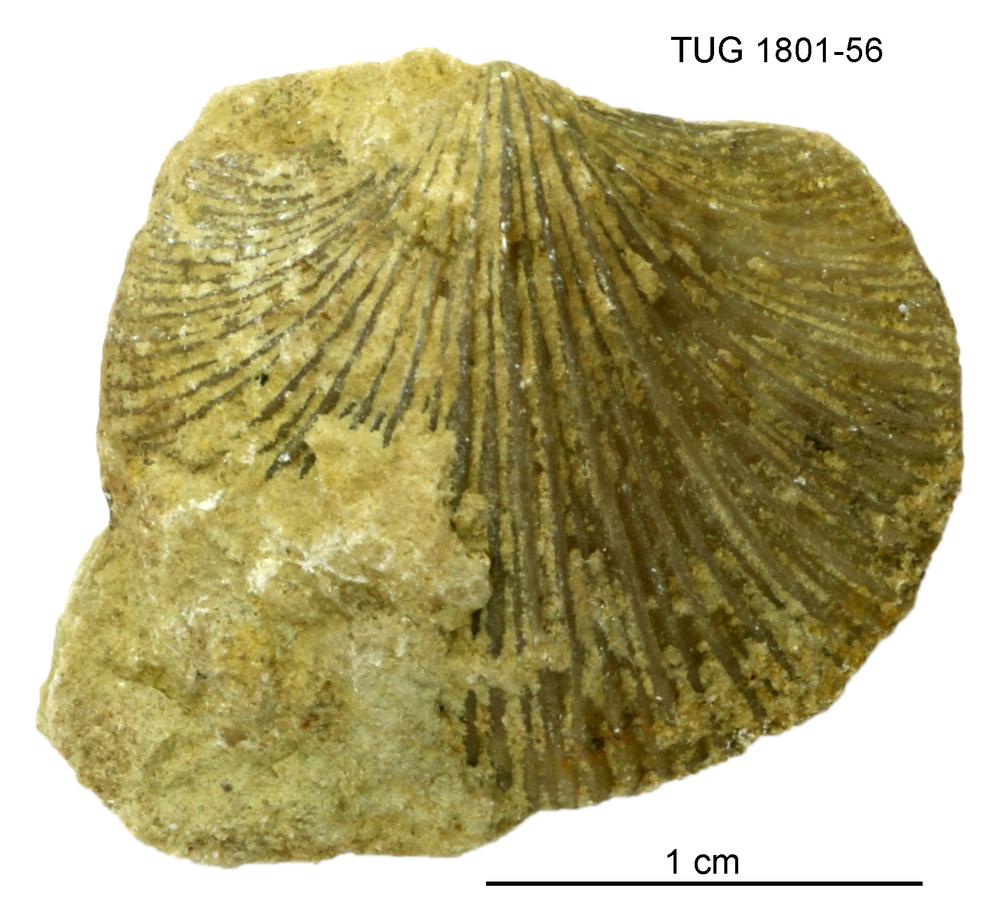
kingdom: Animalia
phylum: Brachiopoda
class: Rhynchonellata
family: Harknessellidae
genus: Horderleyella
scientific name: Horderleyella
